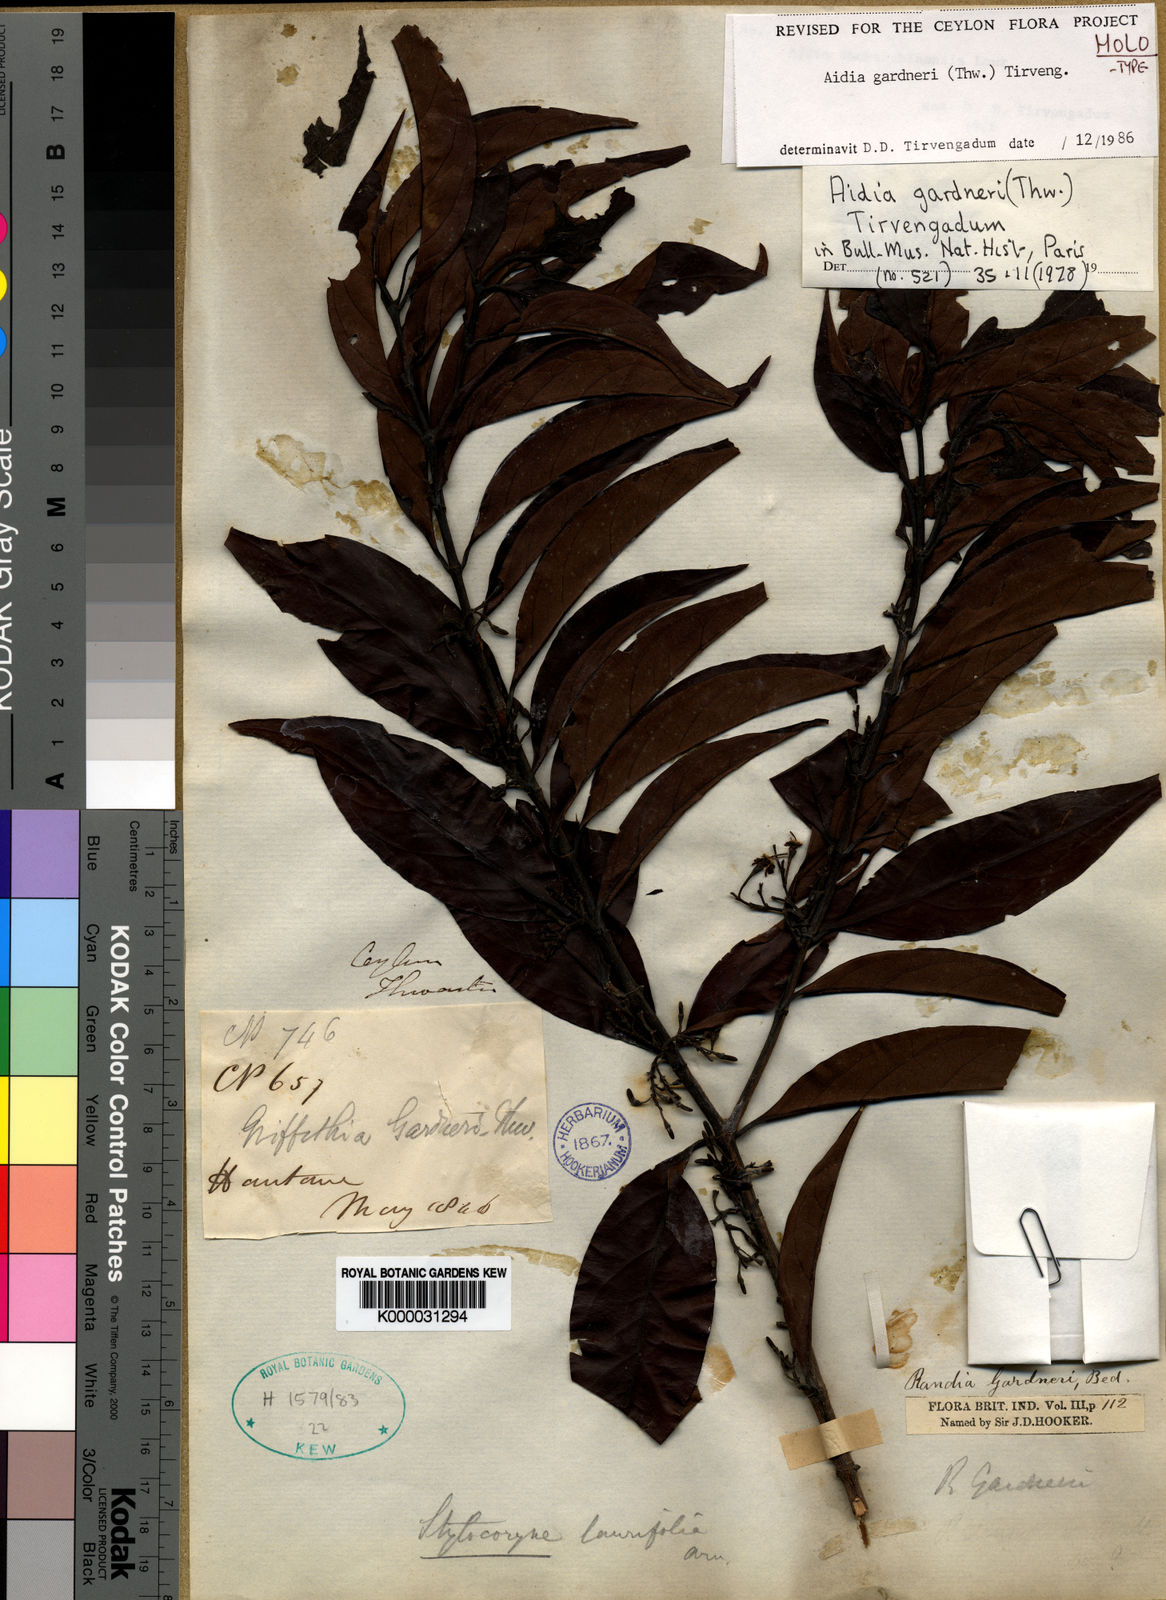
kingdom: Plantae
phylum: Tracheophyta
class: Magnoliopsida
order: Gentianales
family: Rubiaceae
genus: Aidia
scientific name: Aidia gardneri
